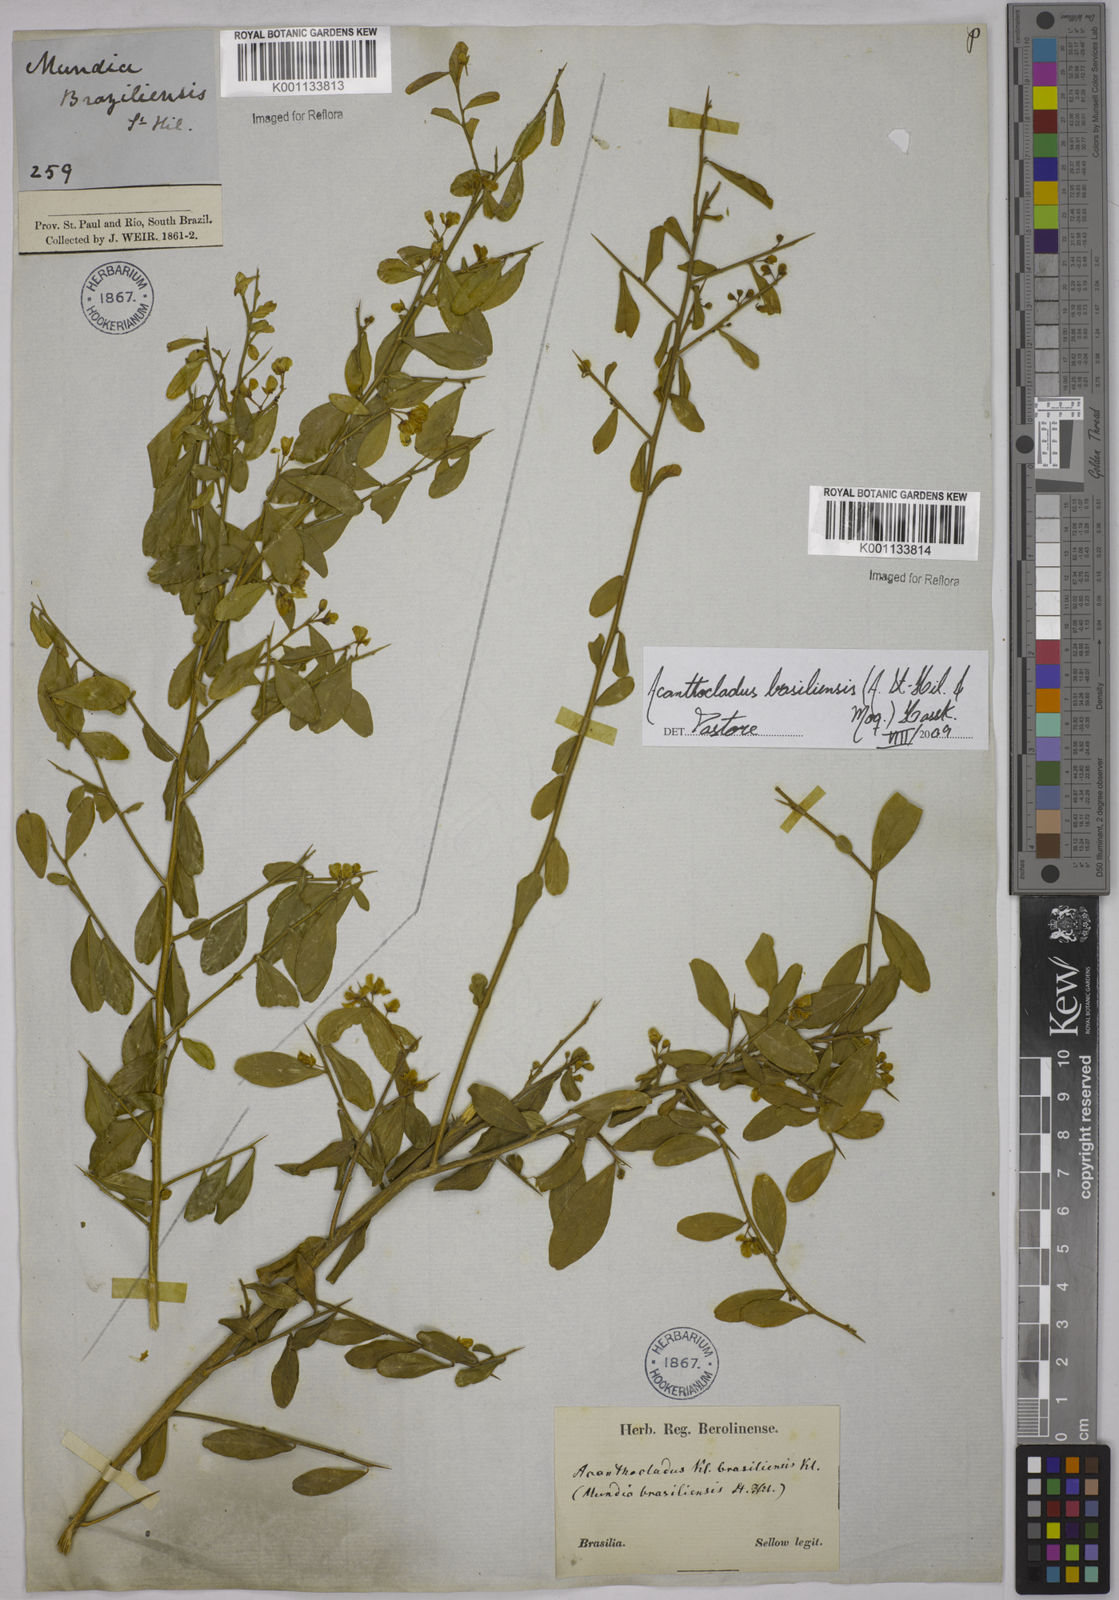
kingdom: Plantae
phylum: Tracheophyta
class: Magnoliopsida
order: Fabales
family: Polygalaceae
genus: Acanthocladus
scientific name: Acanthocladus brasiliensis
